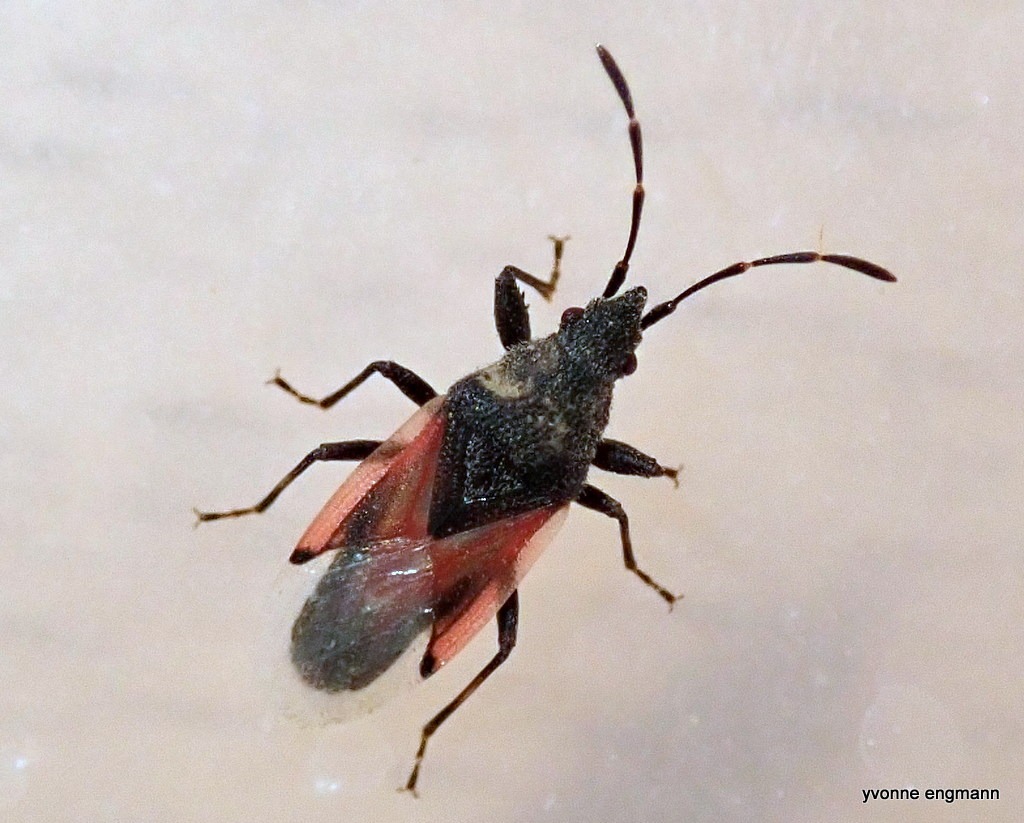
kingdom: Animalia
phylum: Arthropoda
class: Insecta
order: Hemiptera
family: Oxycarenidae
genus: Oxycarenus
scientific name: Oxycarenus lavaterae
